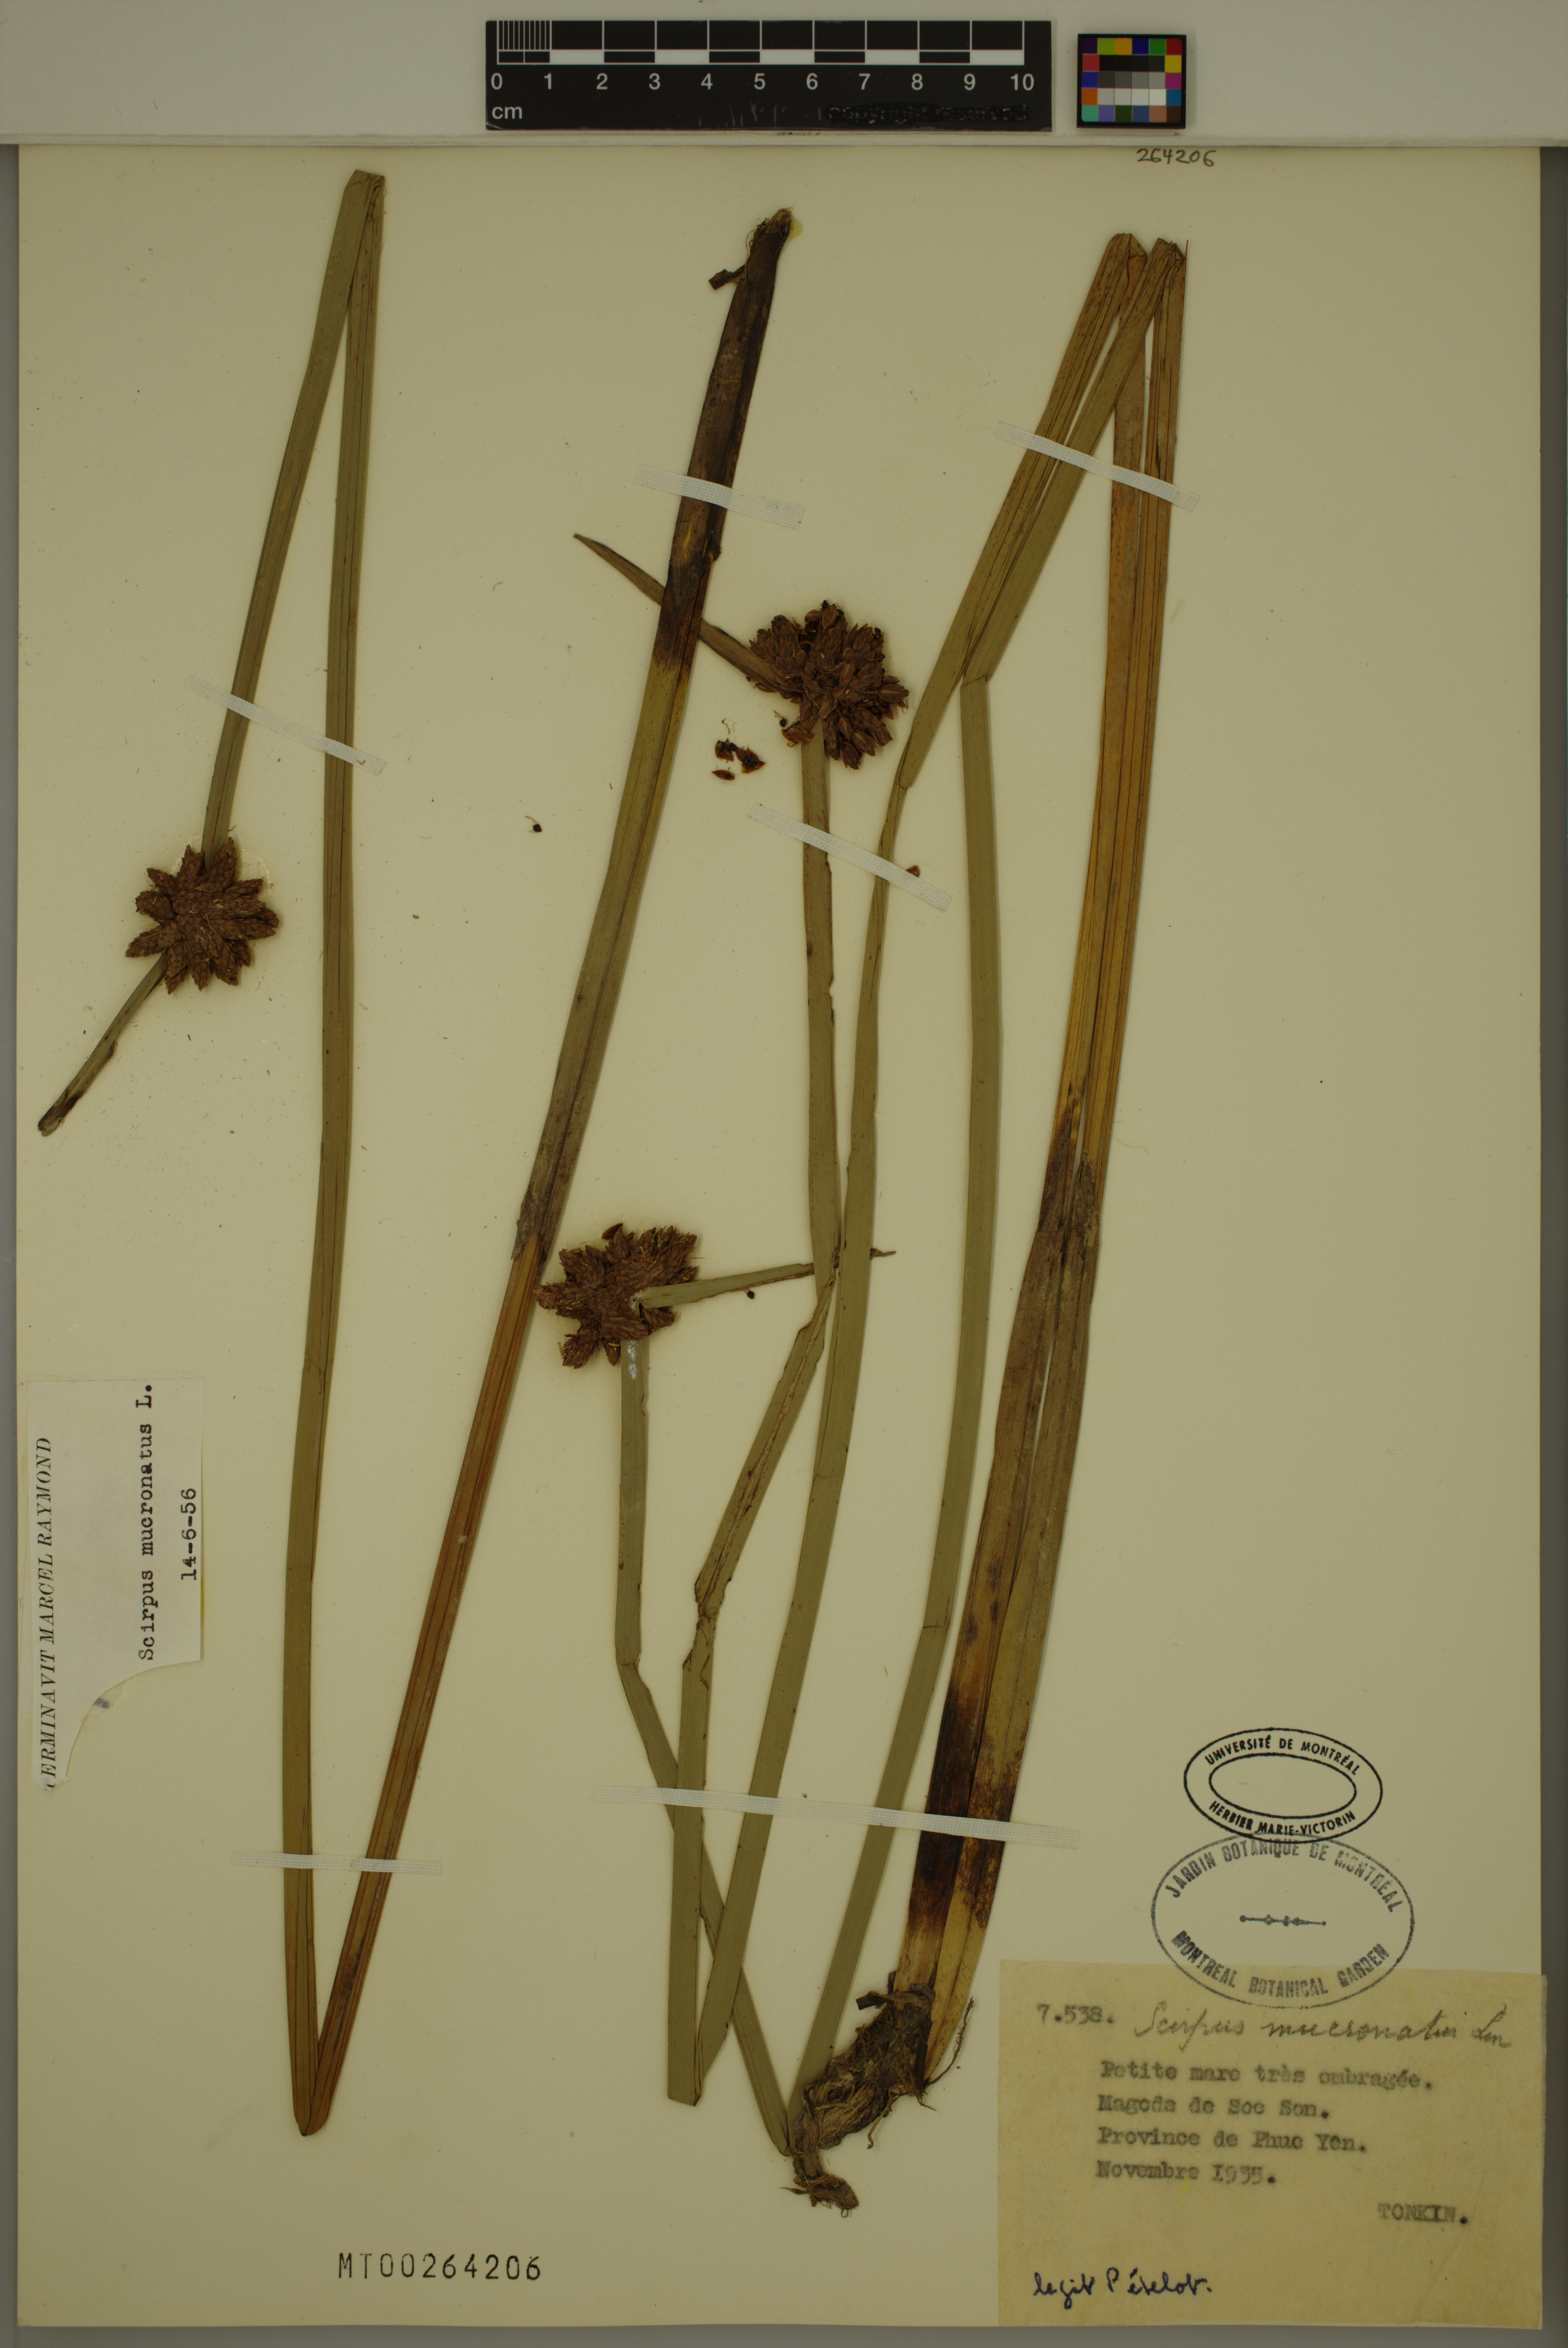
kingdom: Plantae
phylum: Tracheophyta
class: Liliopsida
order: Poales
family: Cyperaceae
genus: Schoenoplectiella
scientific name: Schoenoplectiella mucronata
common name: Bog bulrush
